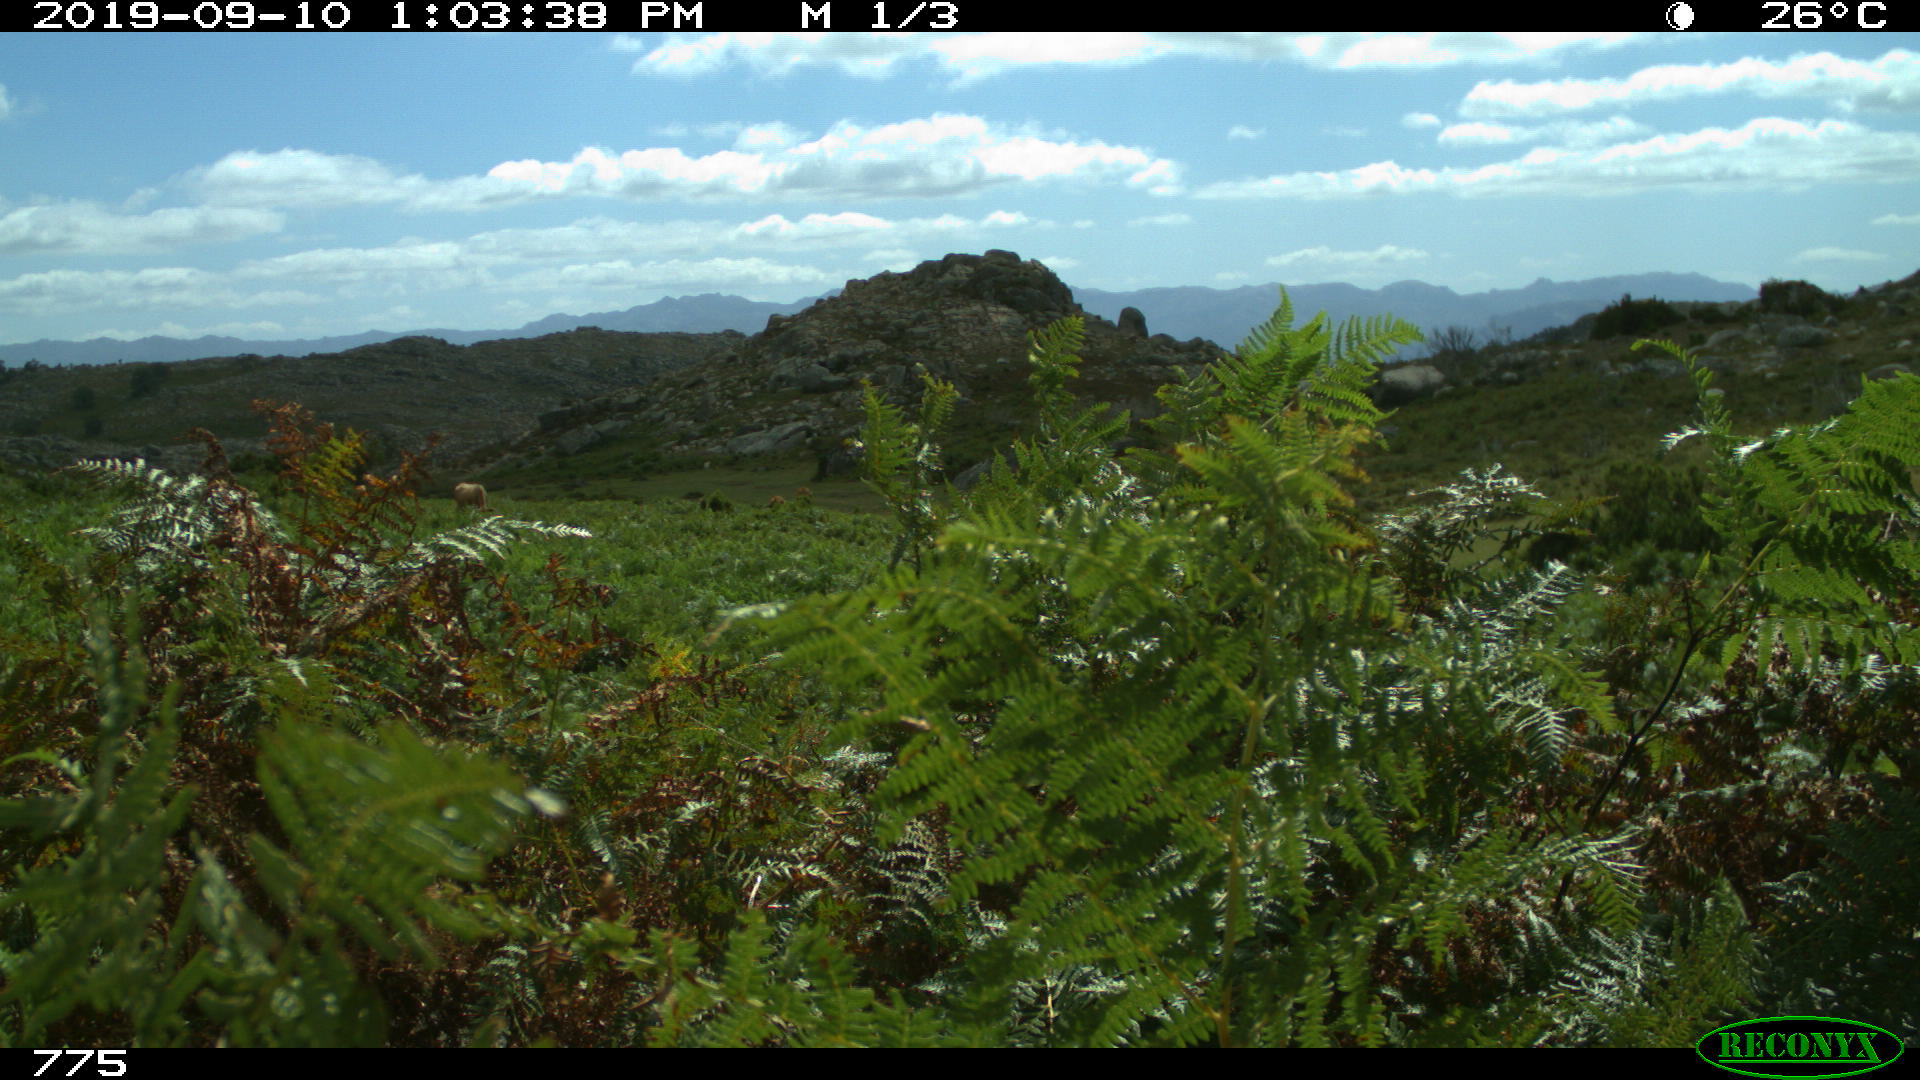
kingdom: Animalia
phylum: Chordata
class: Mammalia
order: Artiodactyla
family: Bovidae
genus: Bos
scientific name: Bos taurus
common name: Domesticated cattle
